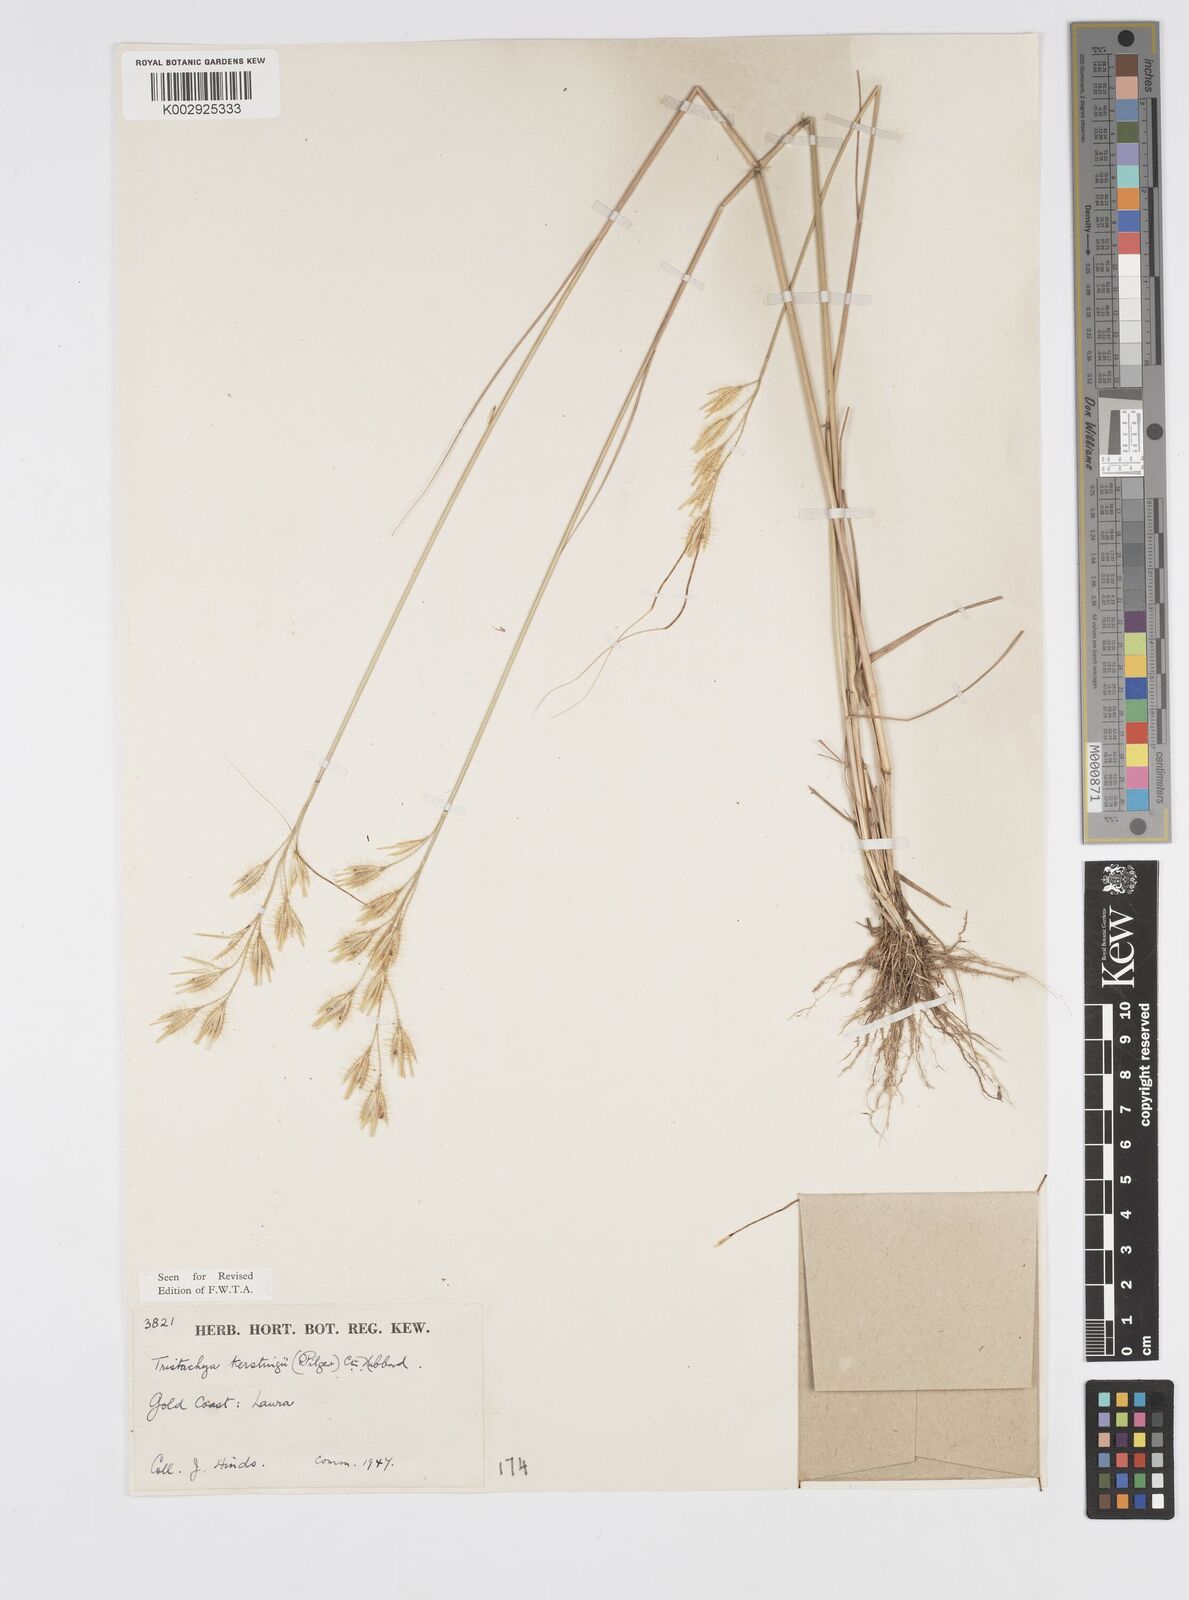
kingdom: Plantae
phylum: Tracheophyta
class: Liliopsida
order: Poales
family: Poaceae
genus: Loudetiopsis
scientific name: Loudetiopsis kerstingii
